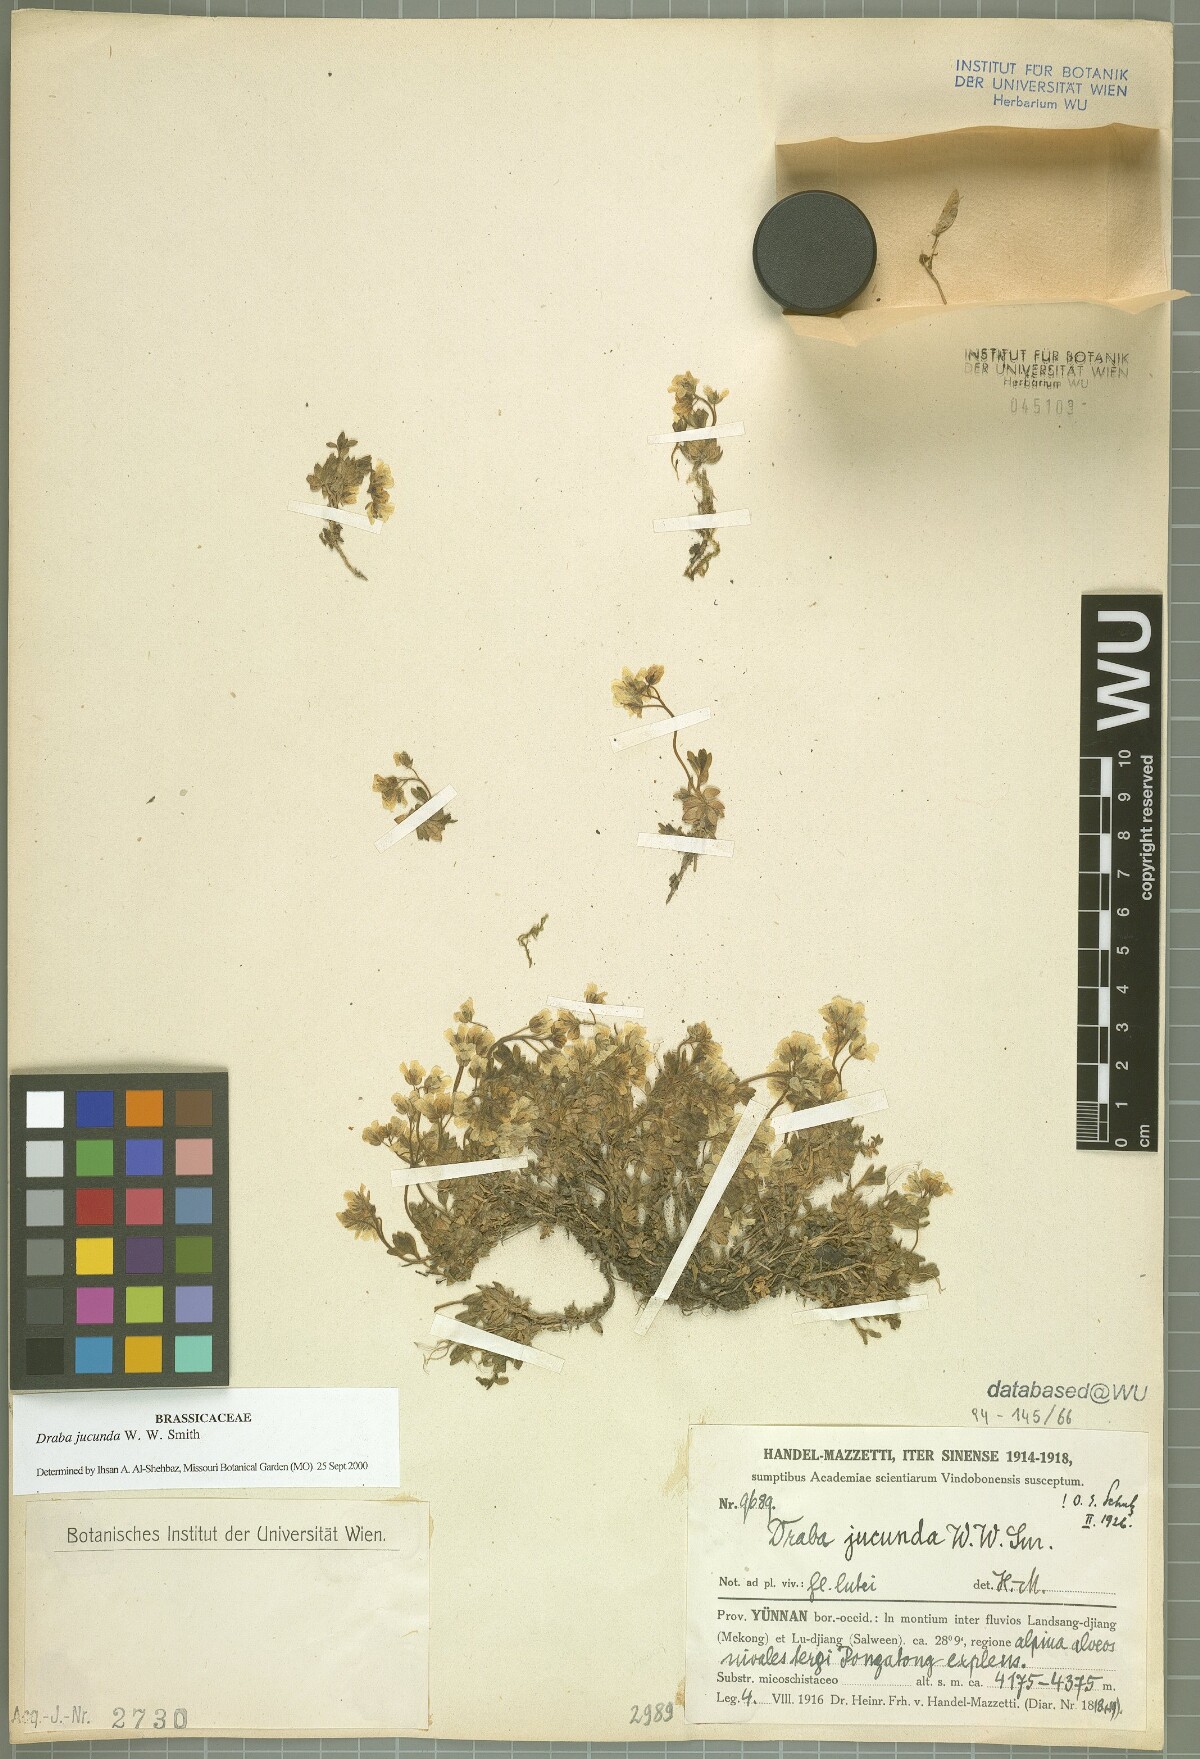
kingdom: Plantae
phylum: Tracheophyta
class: Magnoliopsida
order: Brassicales
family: Brassicaceae
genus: Draba
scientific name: Draba jucunda
